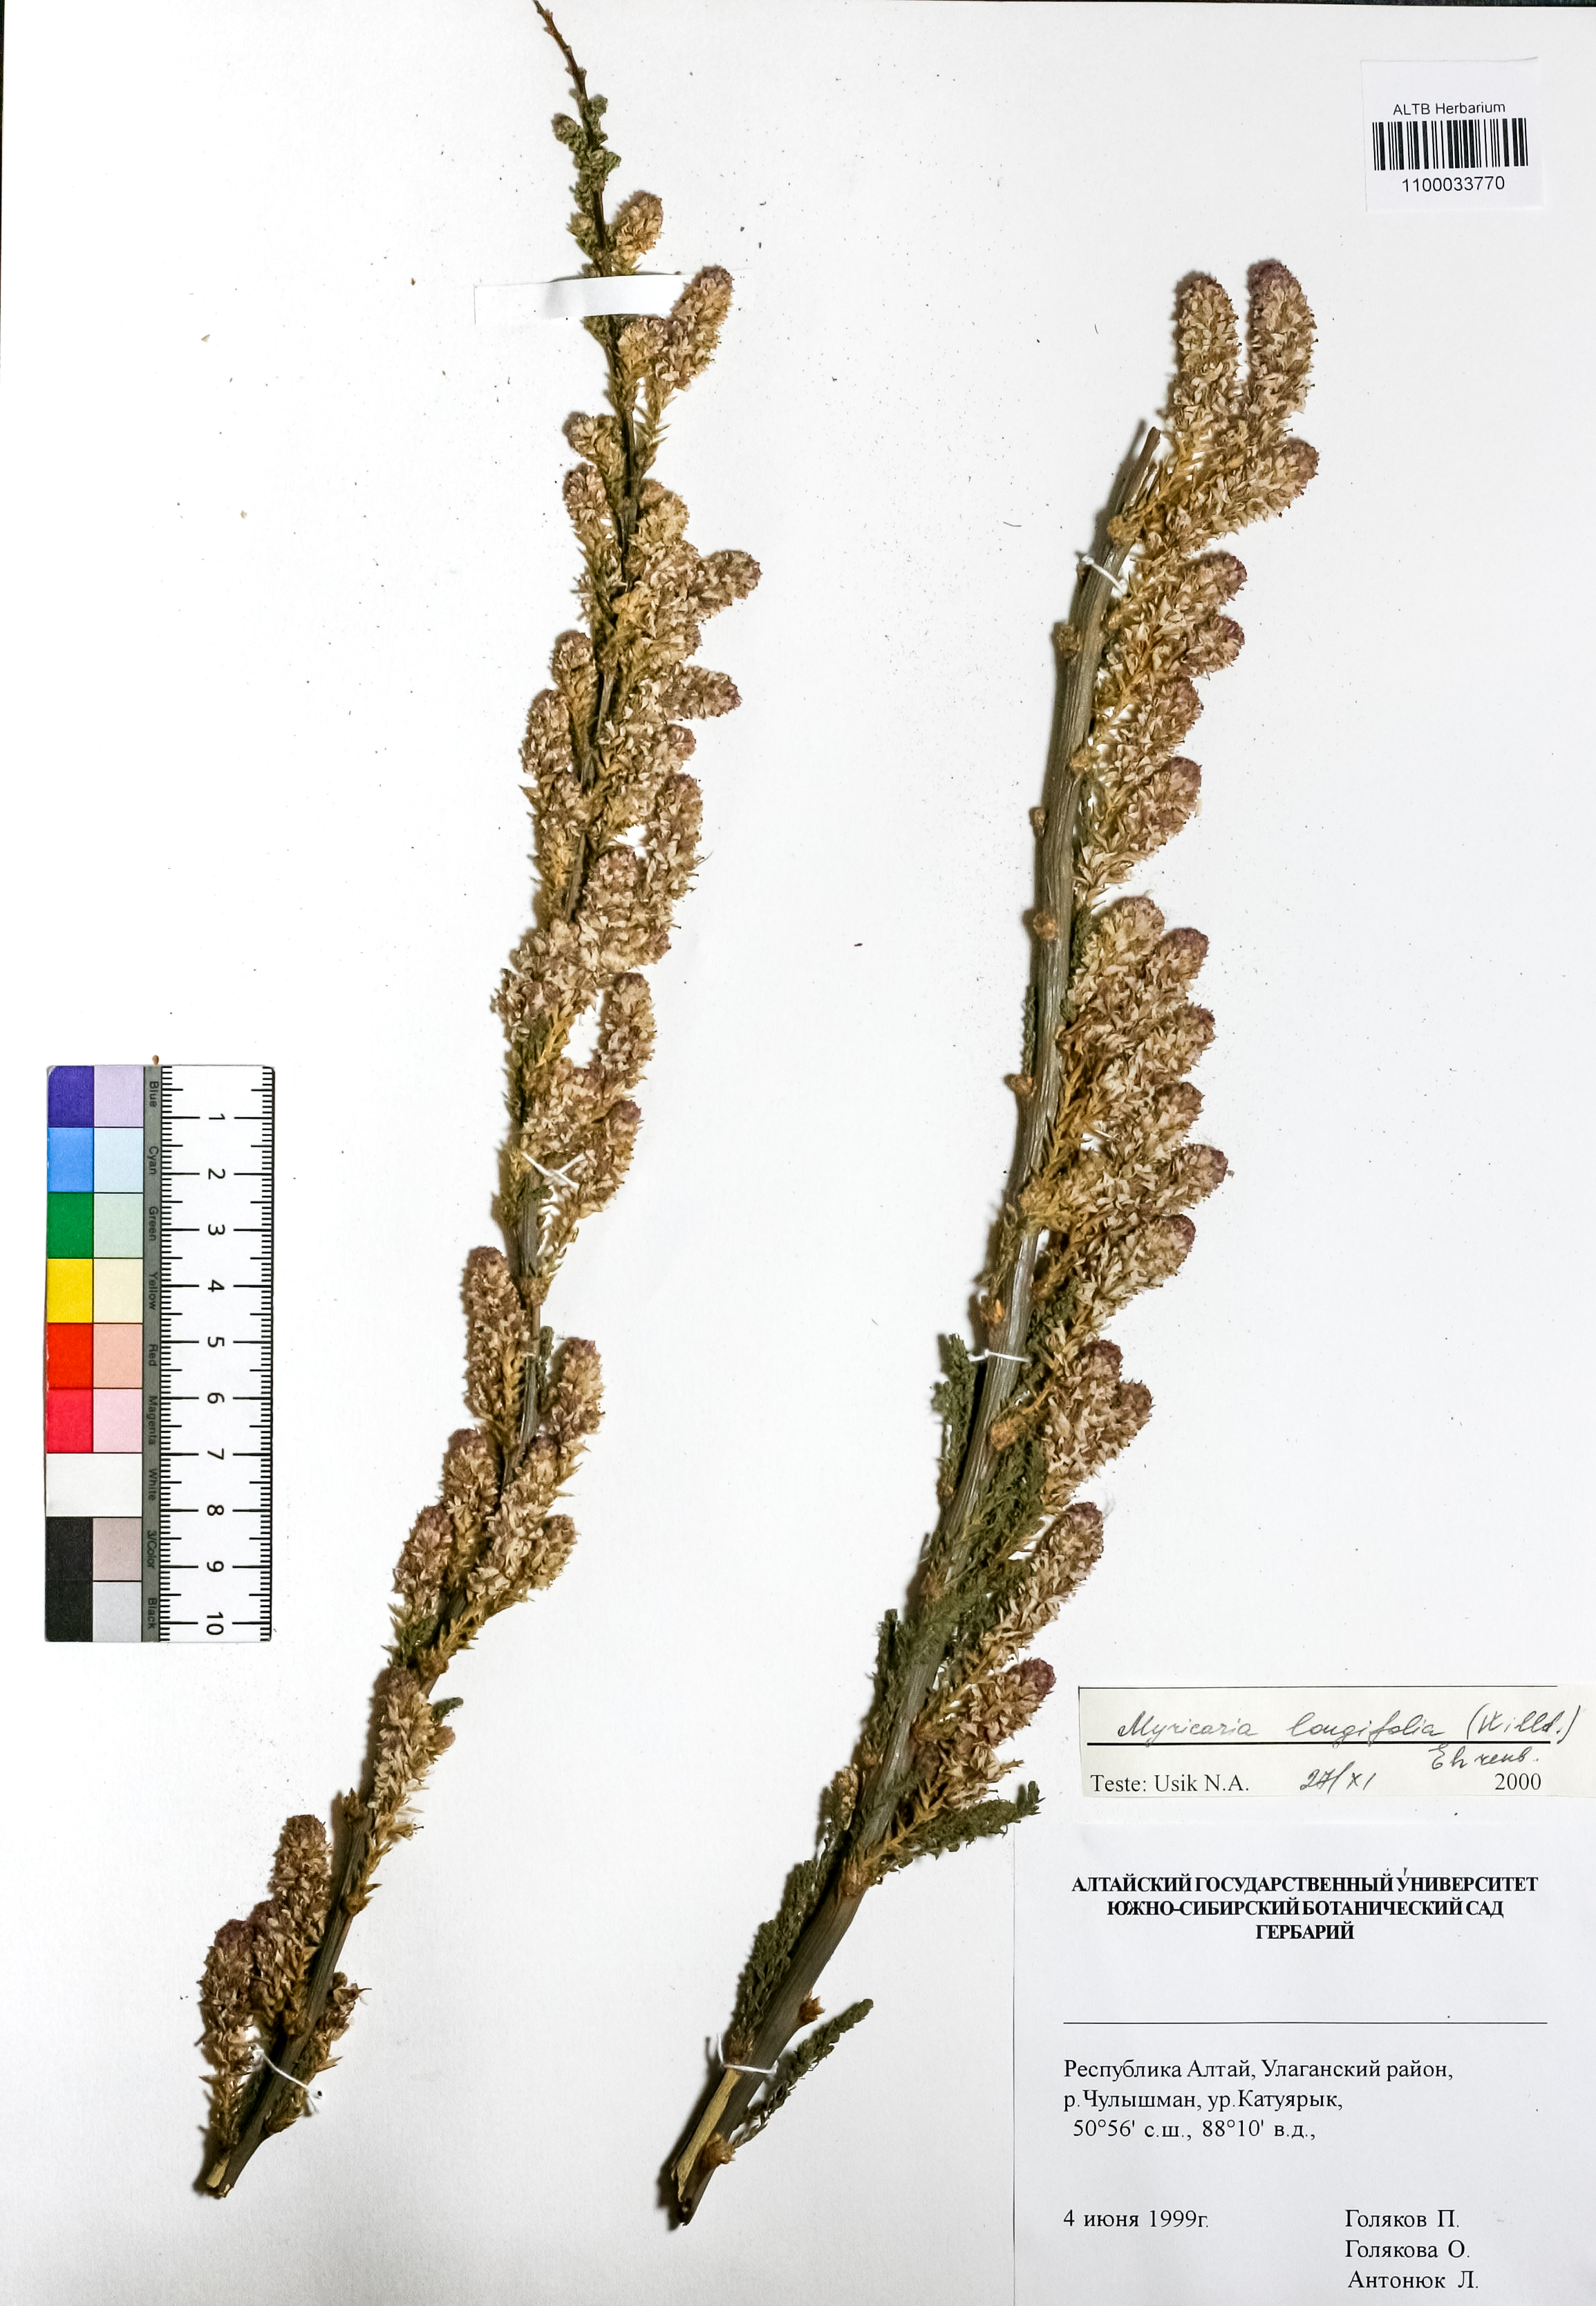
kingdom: Plantae
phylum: Tracheophyta
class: Magnoliopsida
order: Caryophyllales
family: Tamaricaceae
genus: Myricaria
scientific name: Myricaria longifolia
